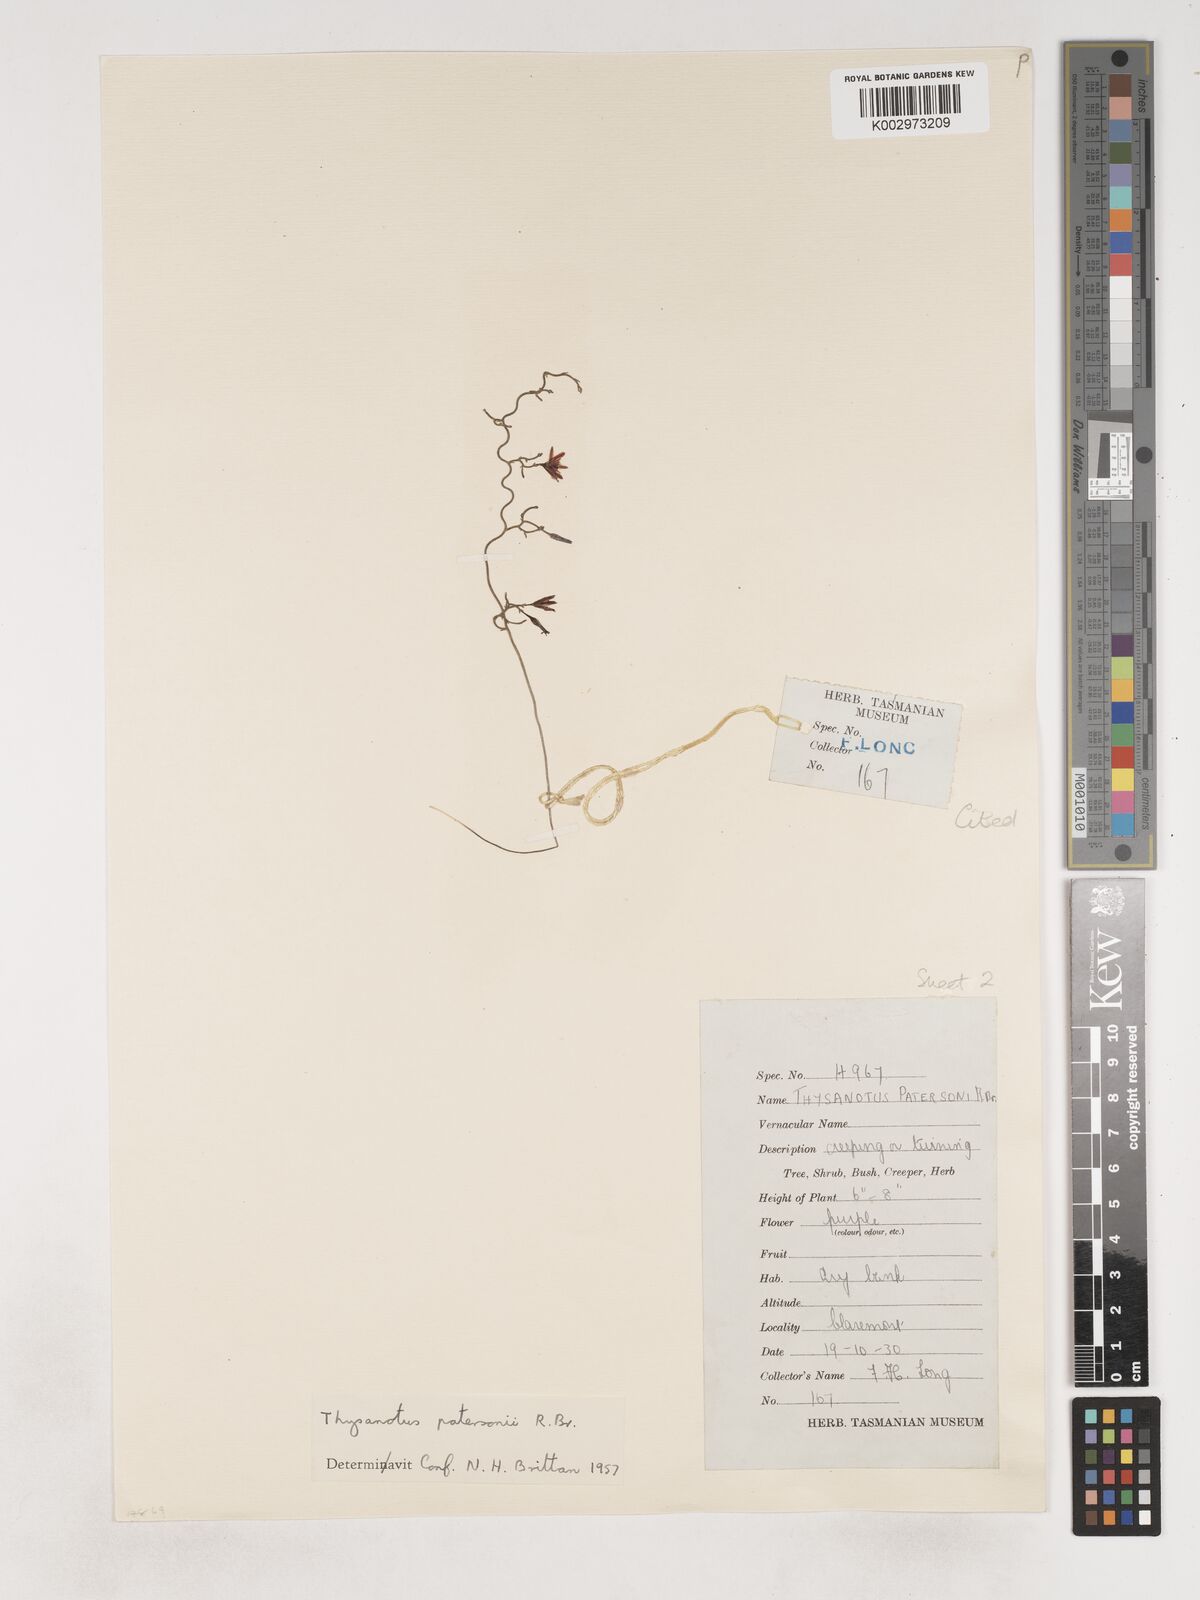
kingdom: Plantae
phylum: Tracheophyta
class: Liliopsida
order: Asparagales
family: Asparagaceae
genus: Thysanotus
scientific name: Thysanotus patersonii
